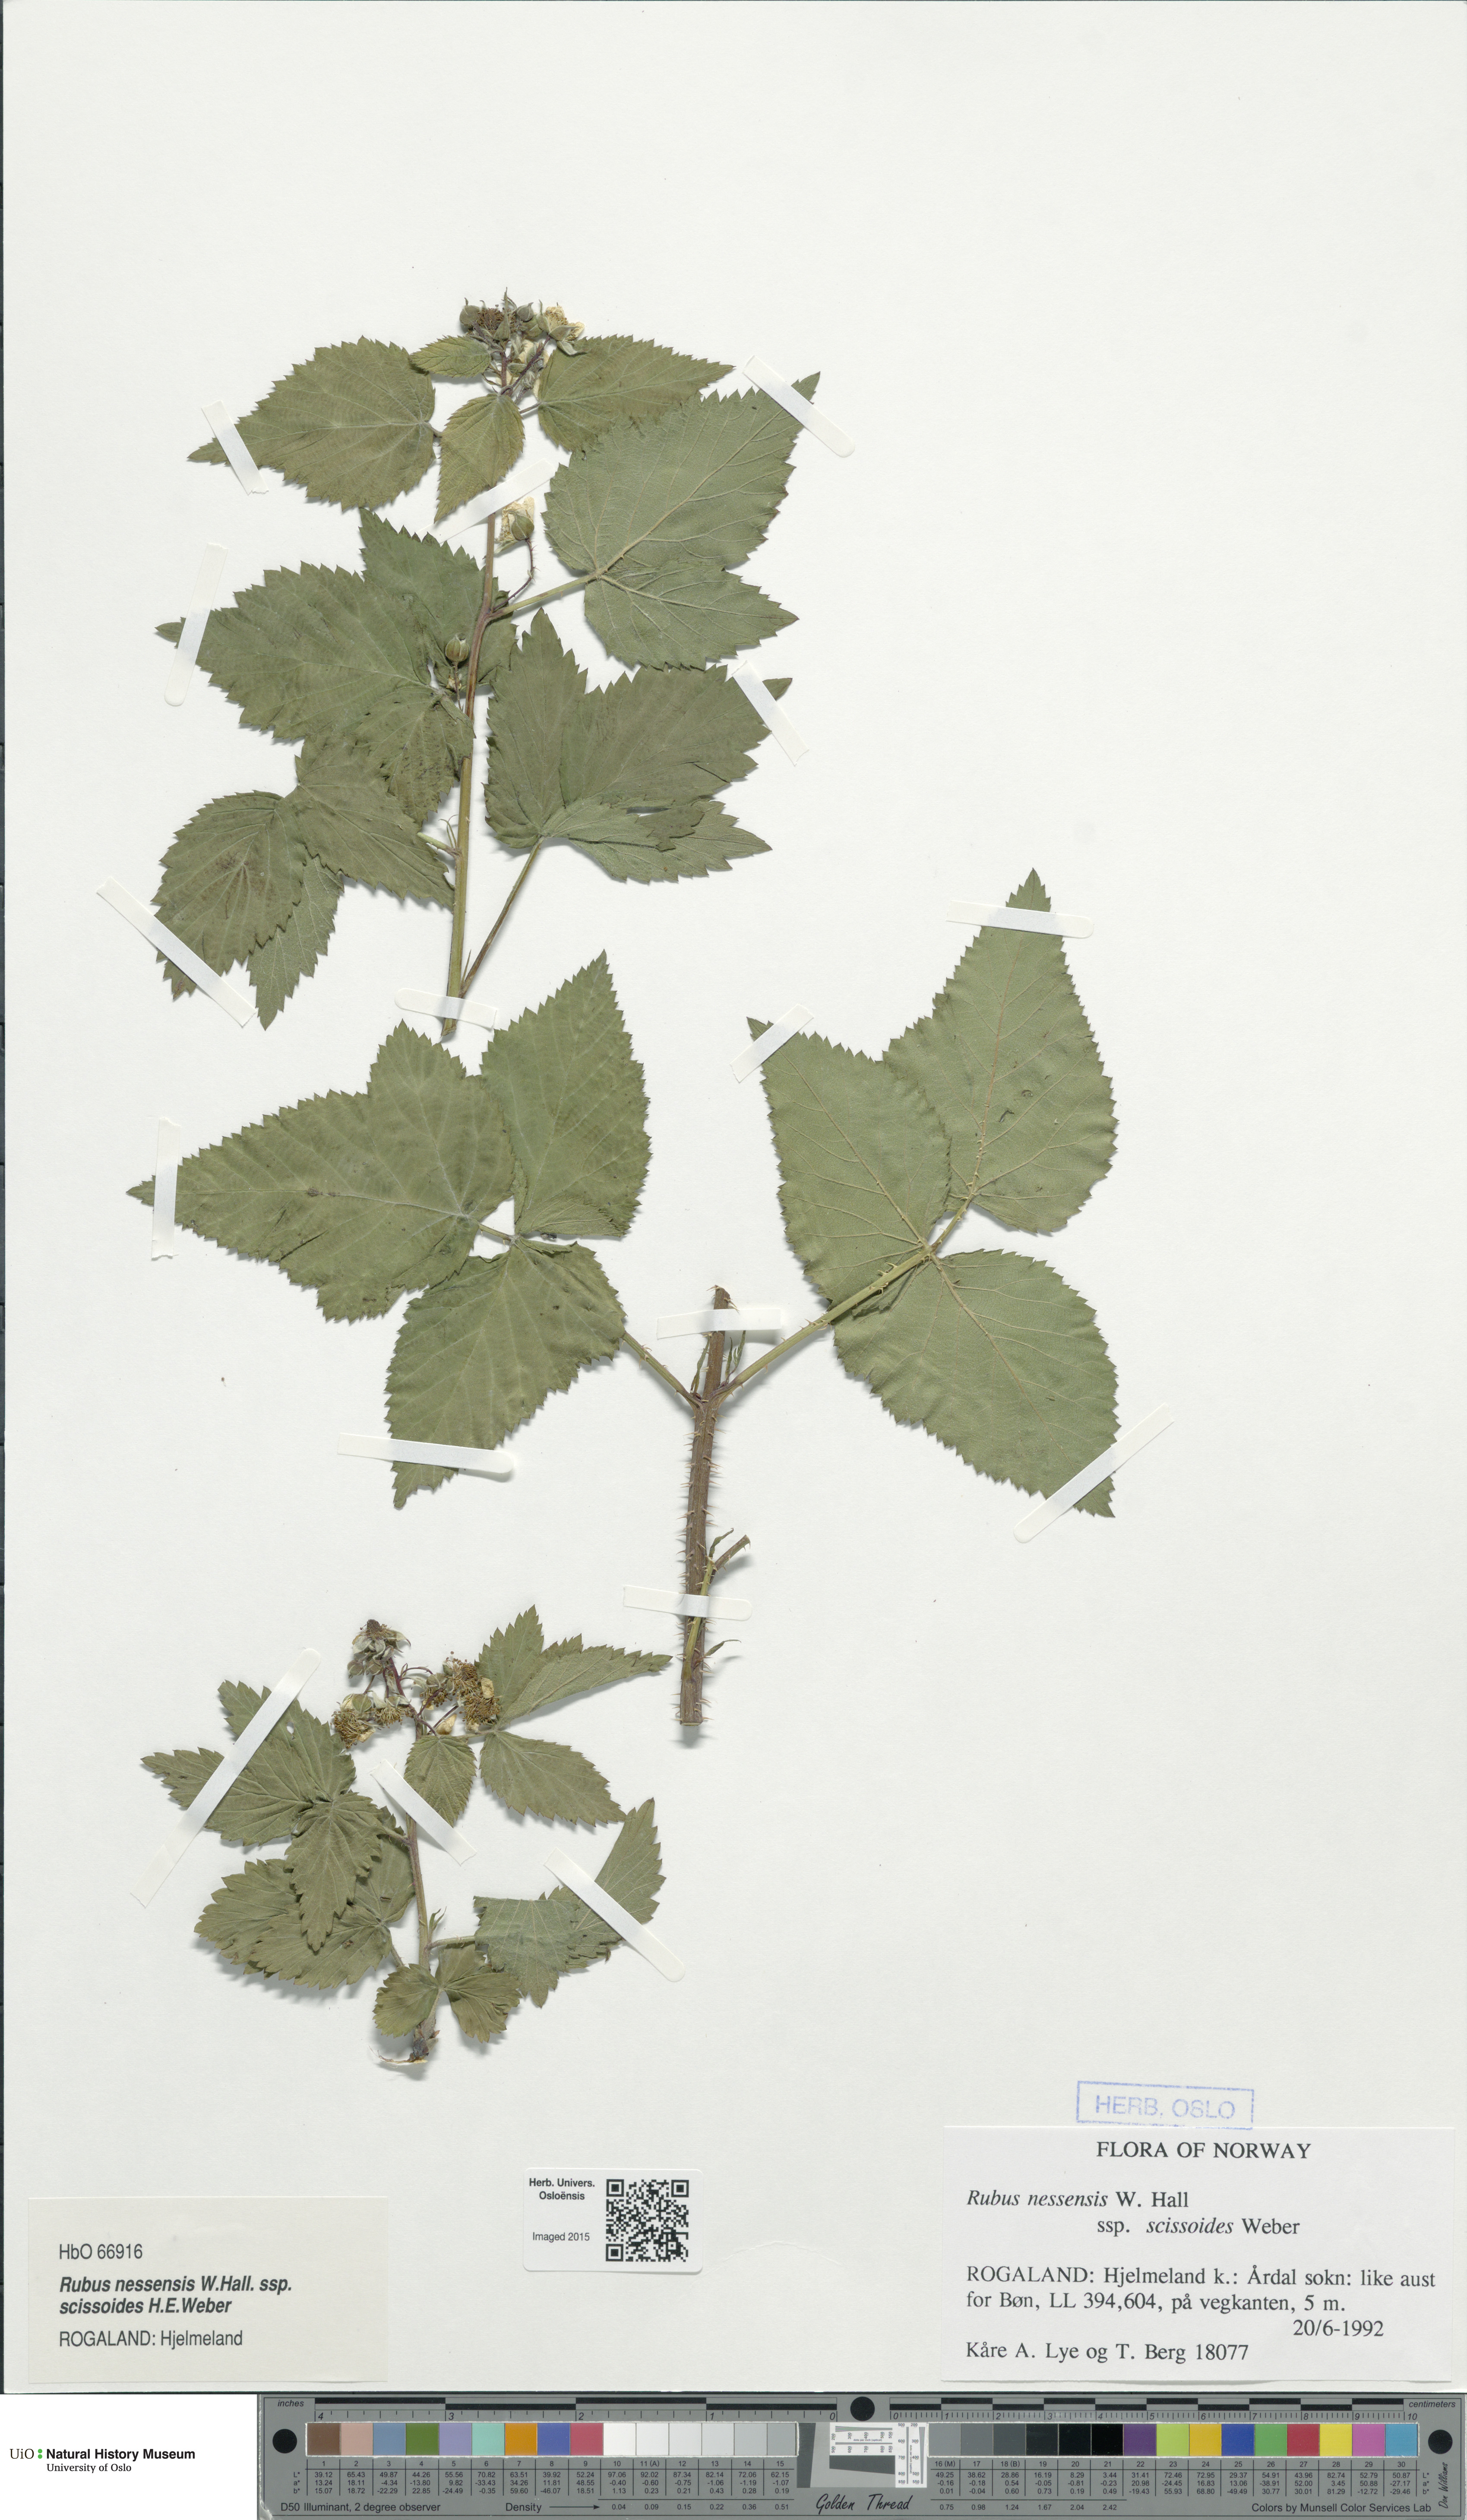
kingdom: Plantae
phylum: Tracheophyta
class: Magnoliopsida
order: Rosales
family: Rosaceae
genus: Rubus
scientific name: Rubus scissus
